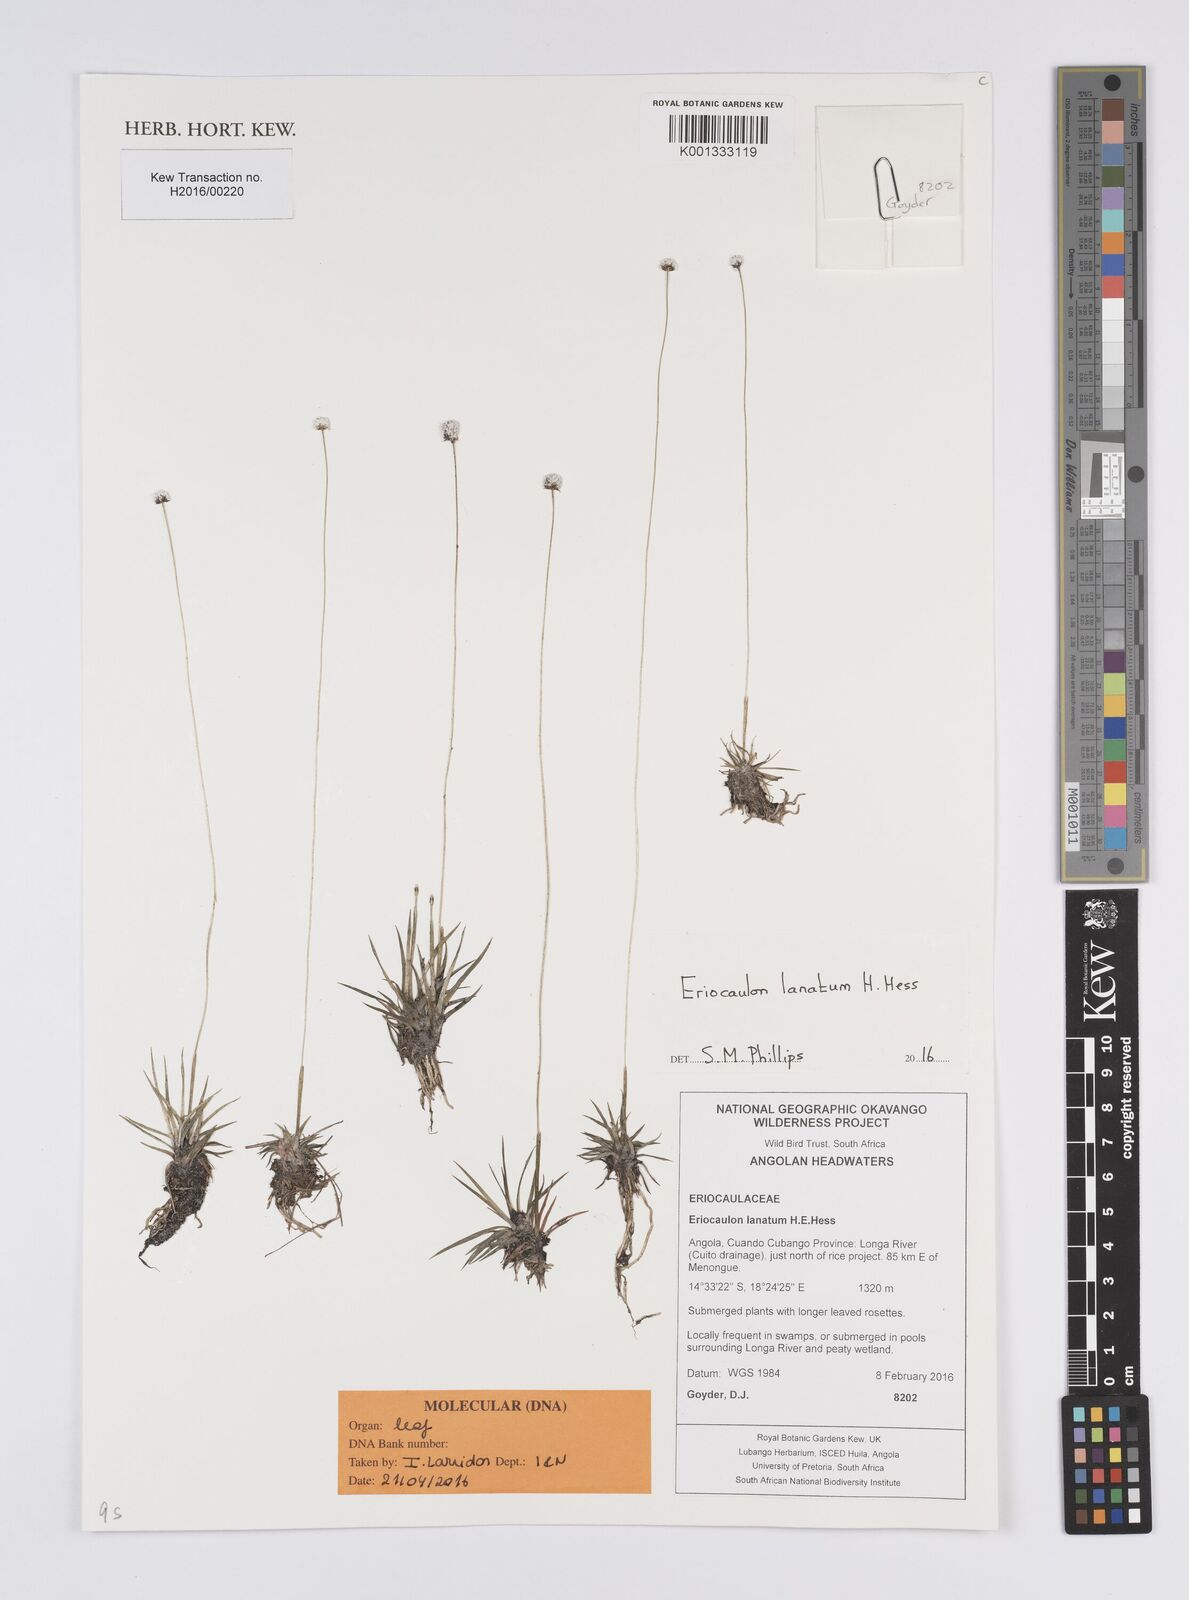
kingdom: Plantae
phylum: Tracheophyta
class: Liliopsida
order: Poales
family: Eriocaulaceae
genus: Eriocaulon
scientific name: Eriocaulon lanatum
